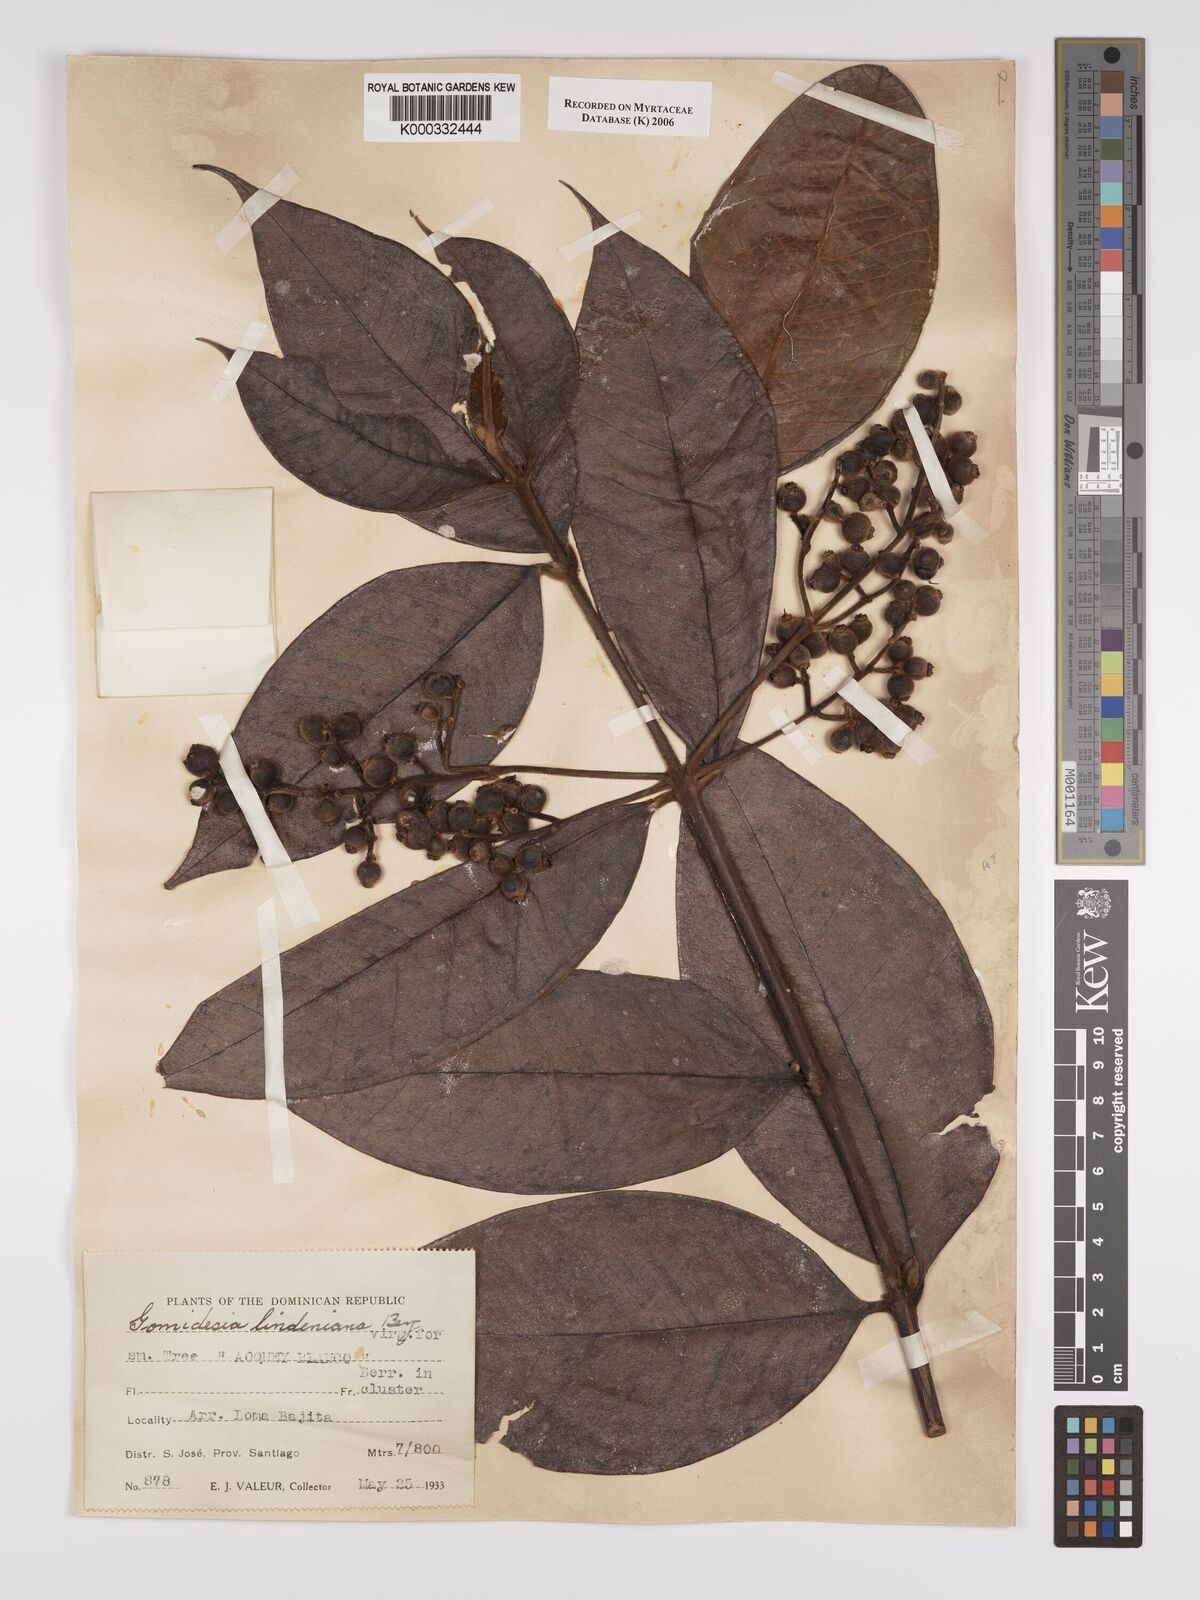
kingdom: Plantae
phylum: Tracheophyta
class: Magnoliopsida
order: Myrtales
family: Myrtaceae
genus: Myrcia
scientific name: Myrcia fenzliana
